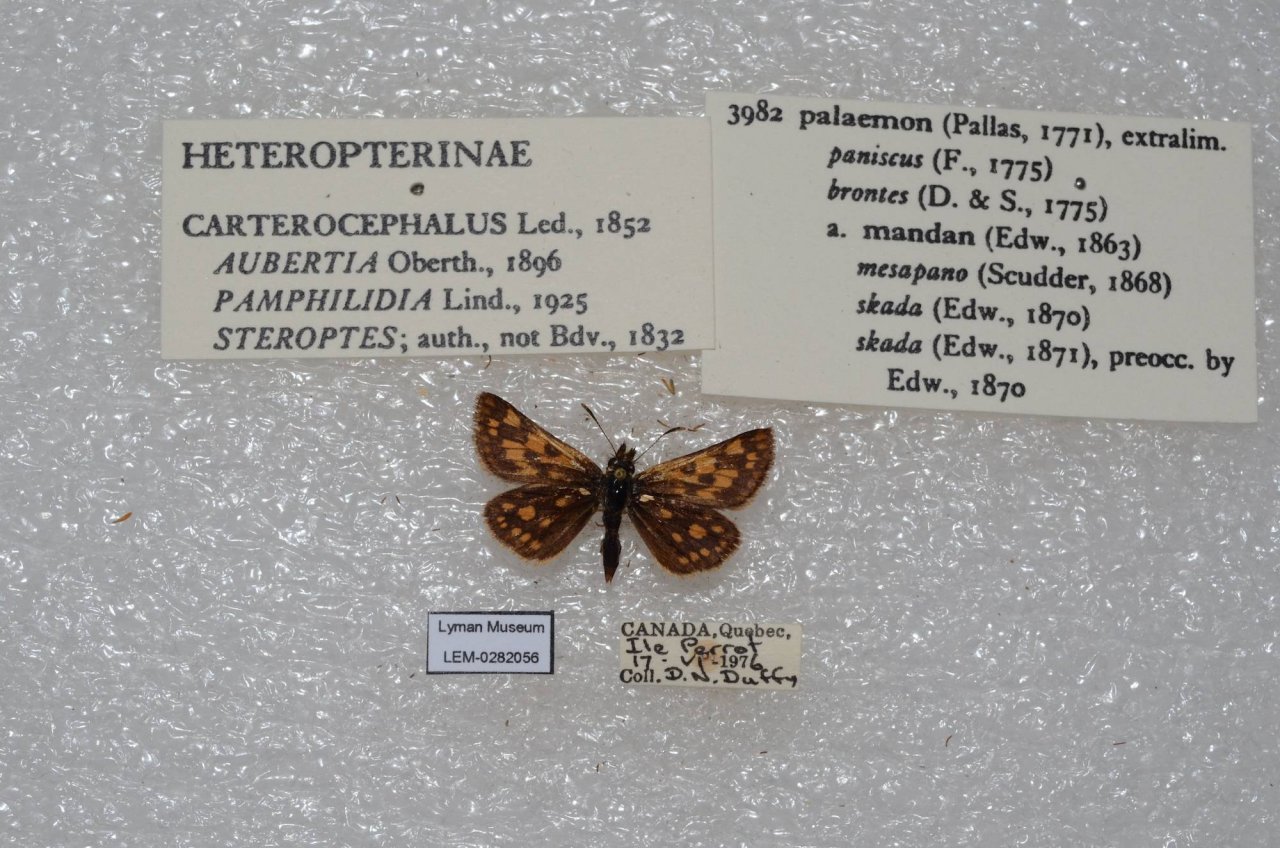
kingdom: Animalia
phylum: Arthropoda
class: Insecta
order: Lepidoptera
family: Hesperiidae
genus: Carterocephalus
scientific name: Carterocephalus palaemon
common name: Chequered Skipper
